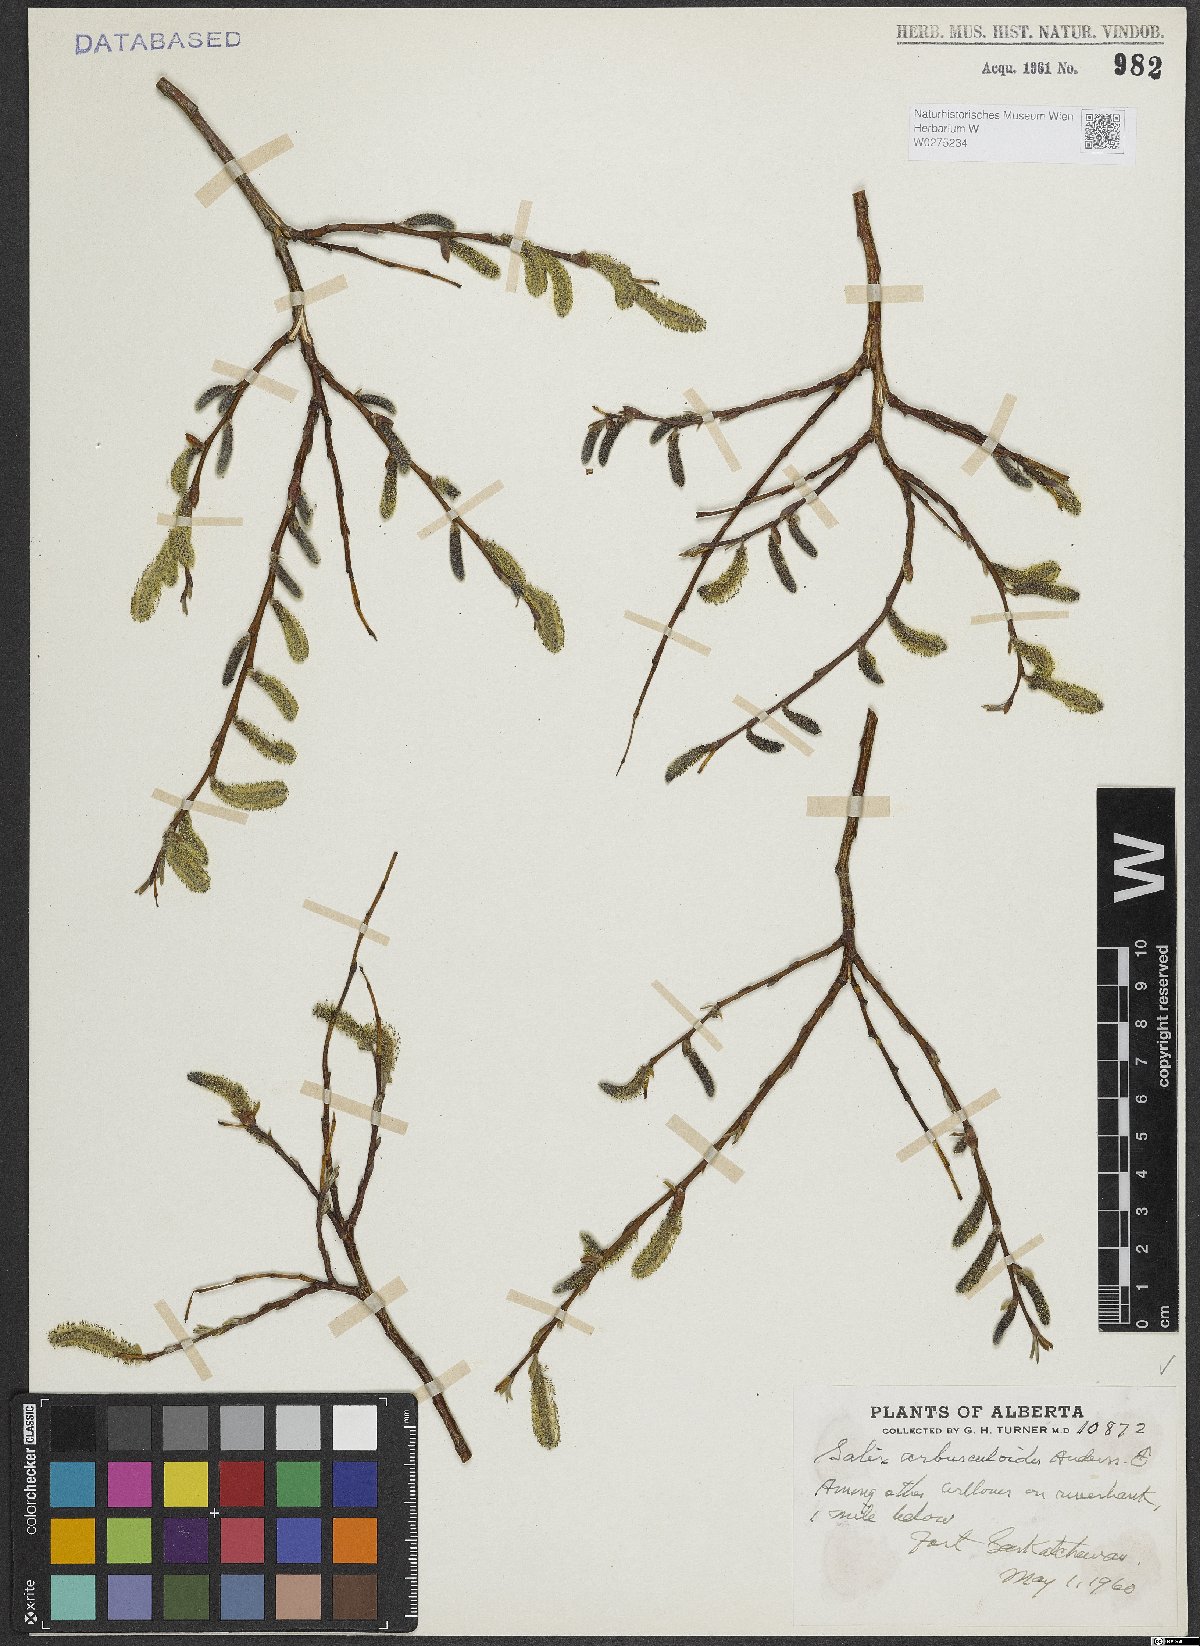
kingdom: Plantae
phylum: Tracheophyta
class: Magnoliopsida
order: Malpighiales
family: Salicaceae
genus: Salix
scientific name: Salix arbusculoides
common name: Little-tree willow
